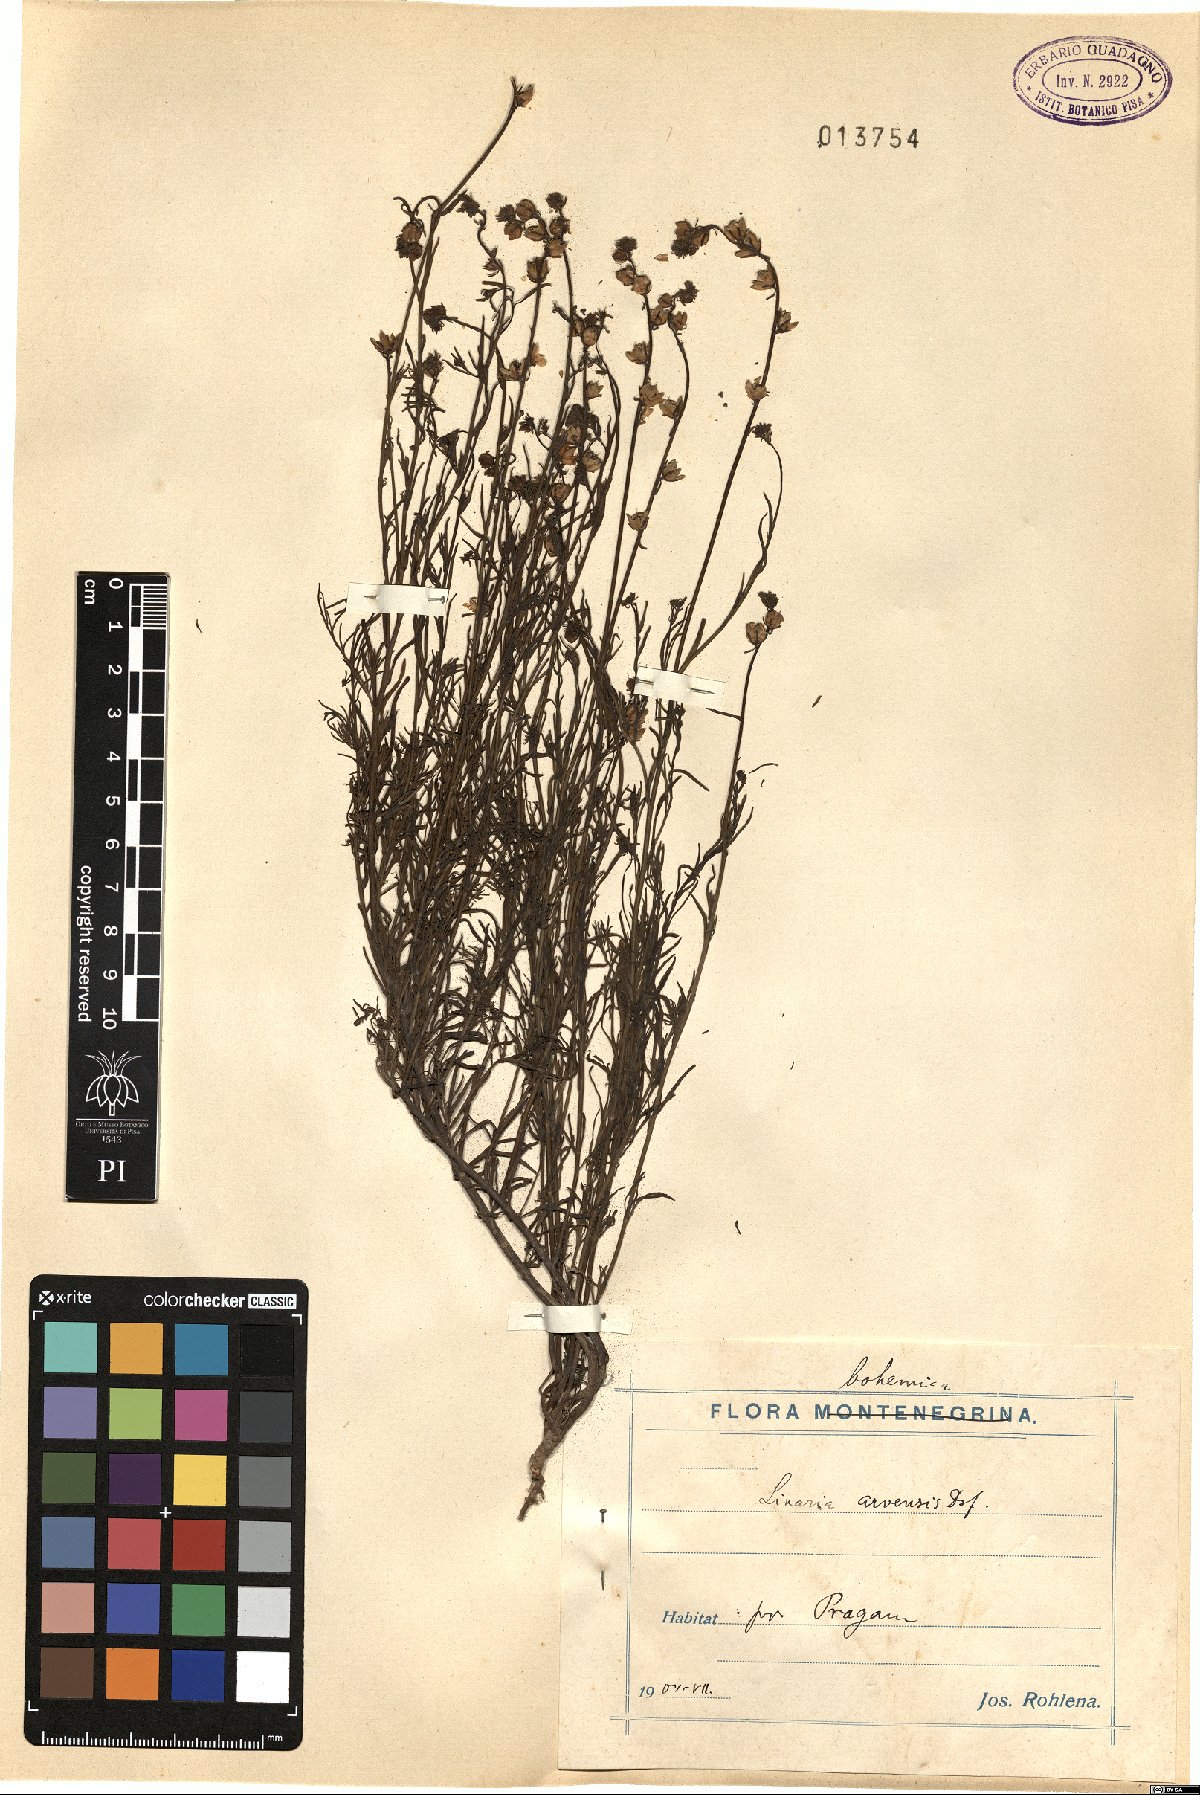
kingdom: Plantae
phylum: Tracheophyta
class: Magnoliopsida
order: Lamiales
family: Plantaginaceae
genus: Linaria
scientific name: Linaria arvensis
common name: Corn toadflax
